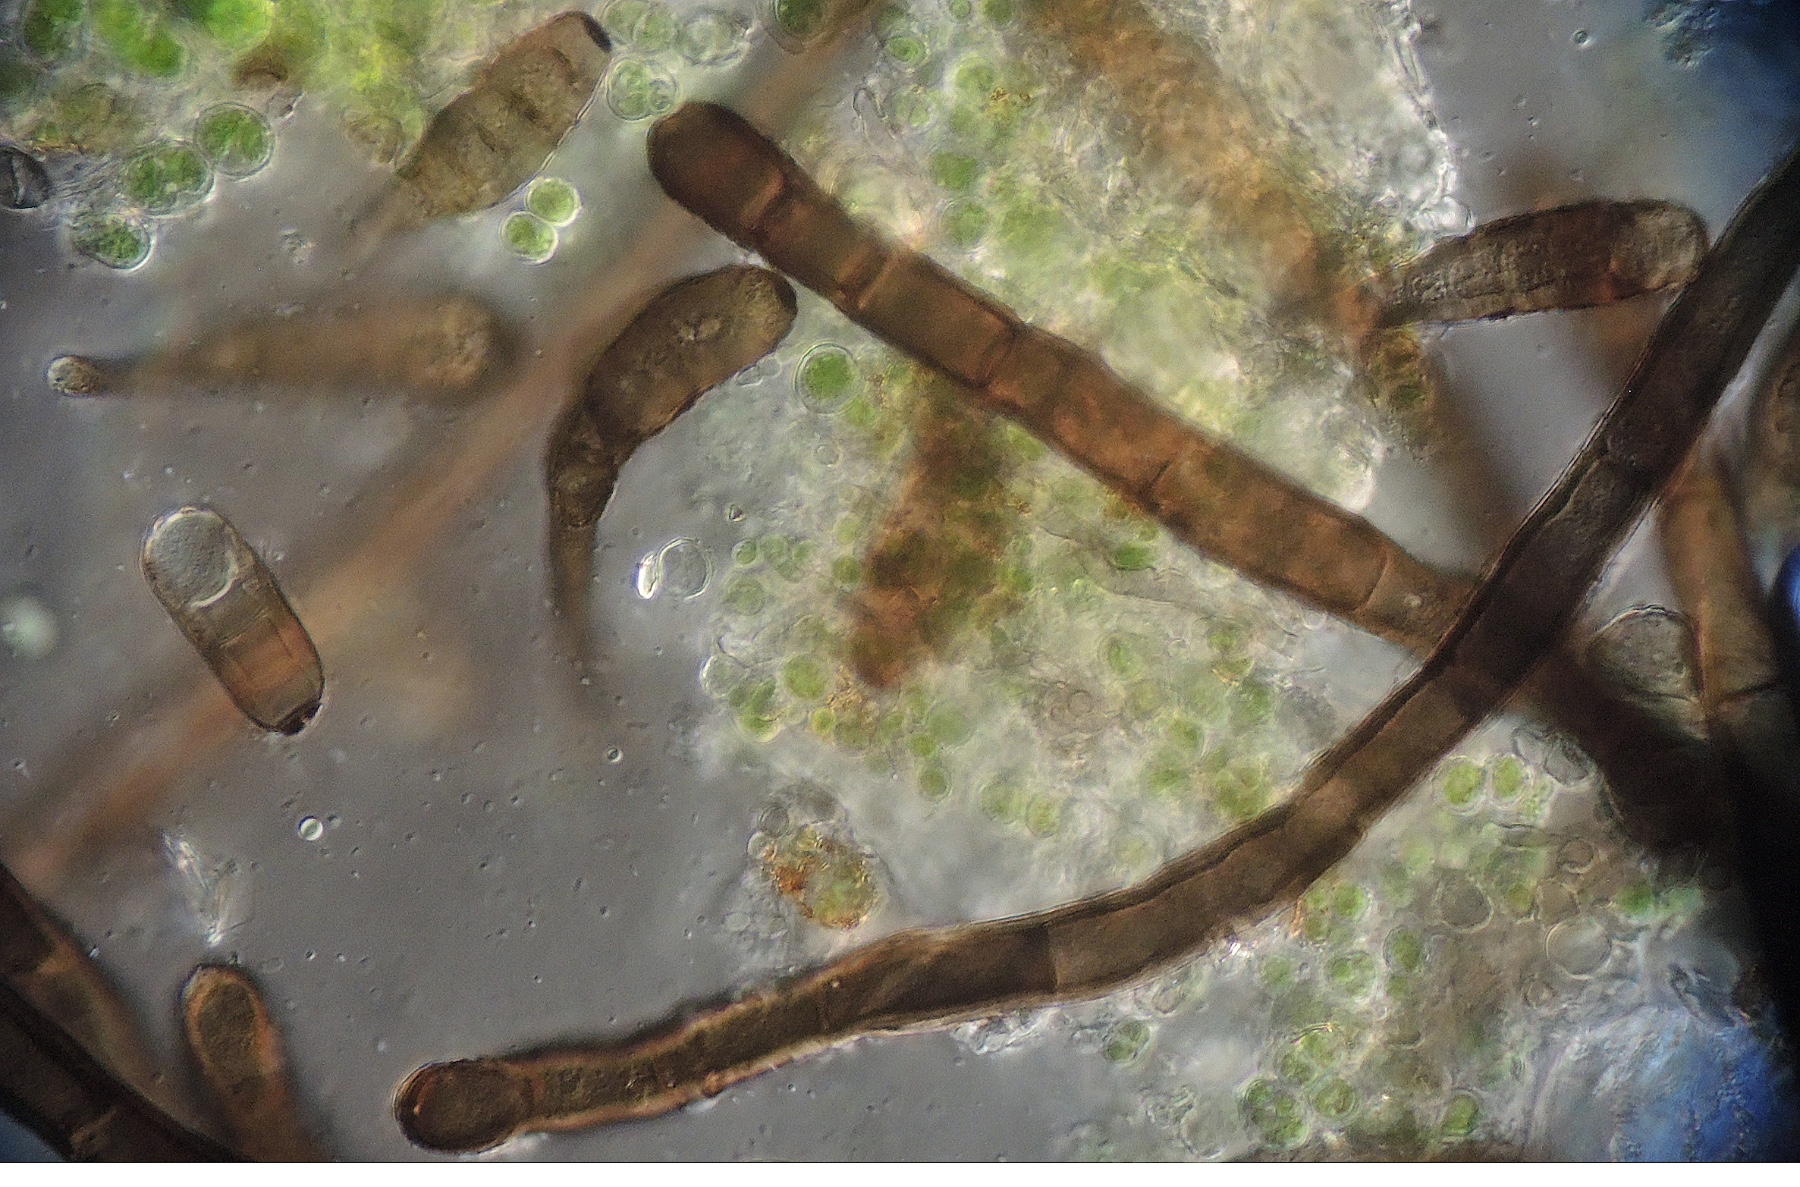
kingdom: Fungi
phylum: Ascomycota
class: Dothideomycetes
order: Pleosporales
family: Massarinaceae
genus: Helminthosporium
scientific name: Helminthosporium genistae
